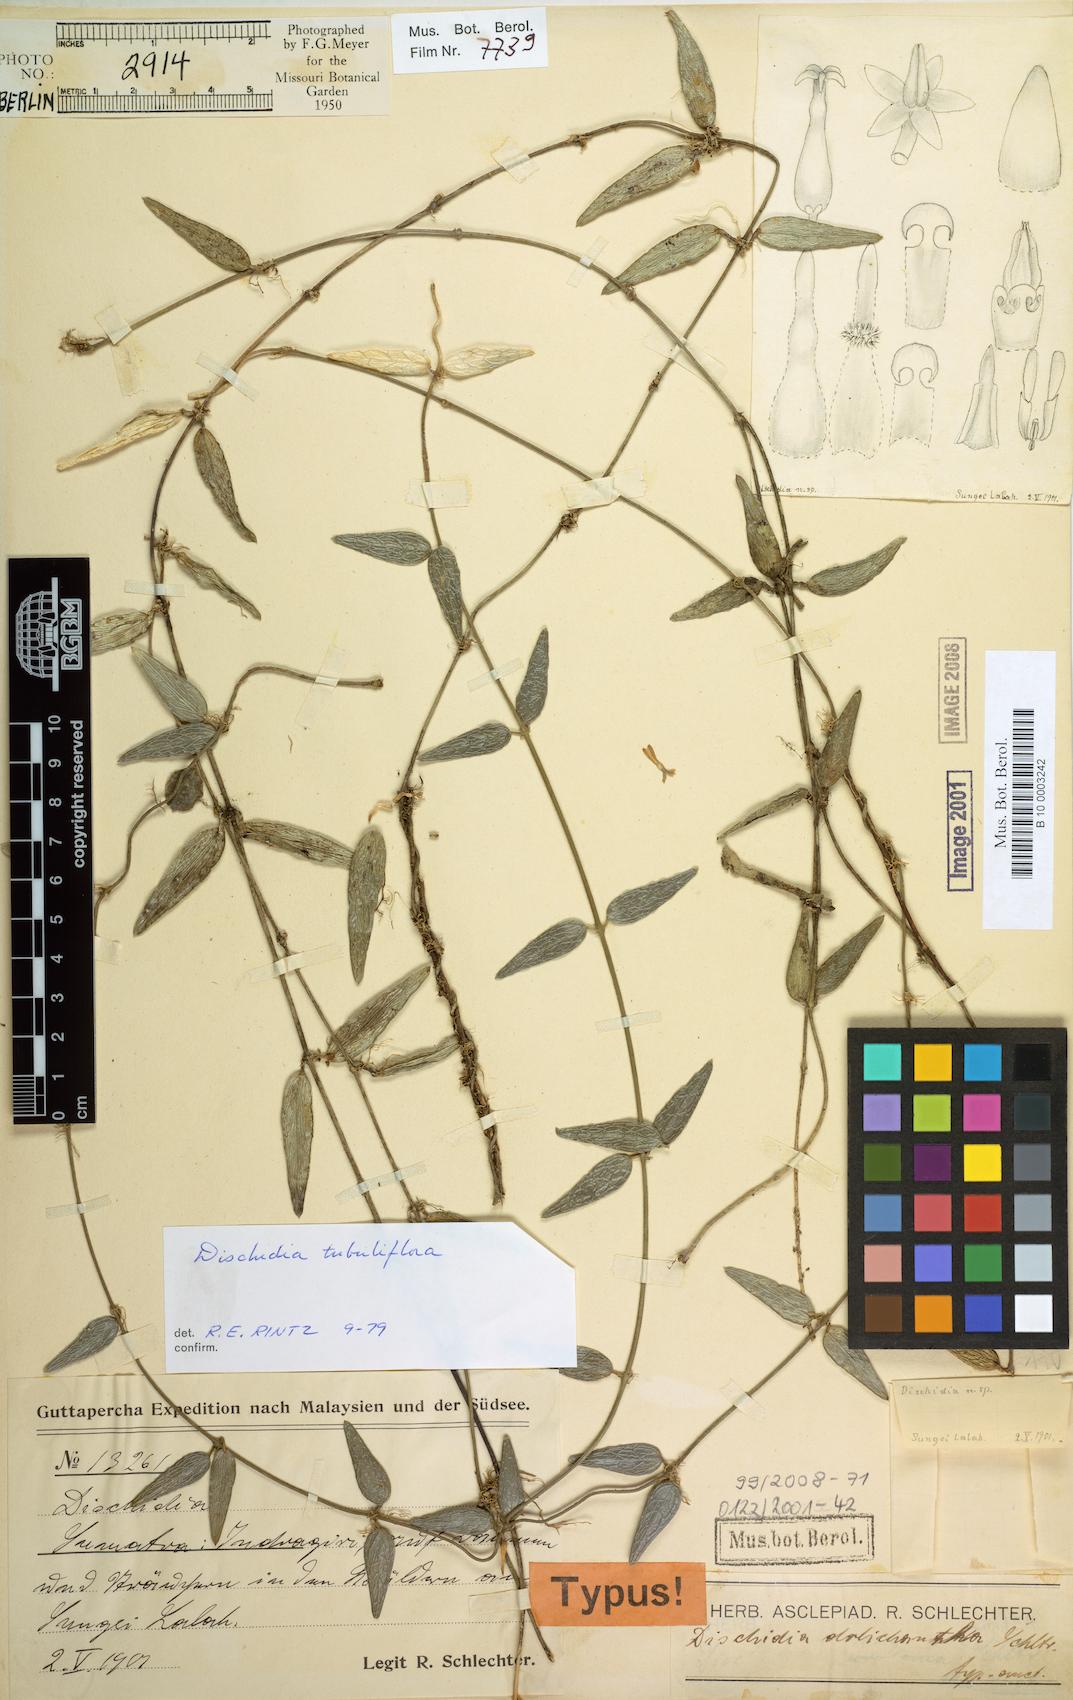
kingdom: Plantae
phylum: Tracheophyta
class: Magnoliopsida
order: Gentianales
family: Apocynaceae
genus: Dischidia
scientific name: Dischidia dolichantha
